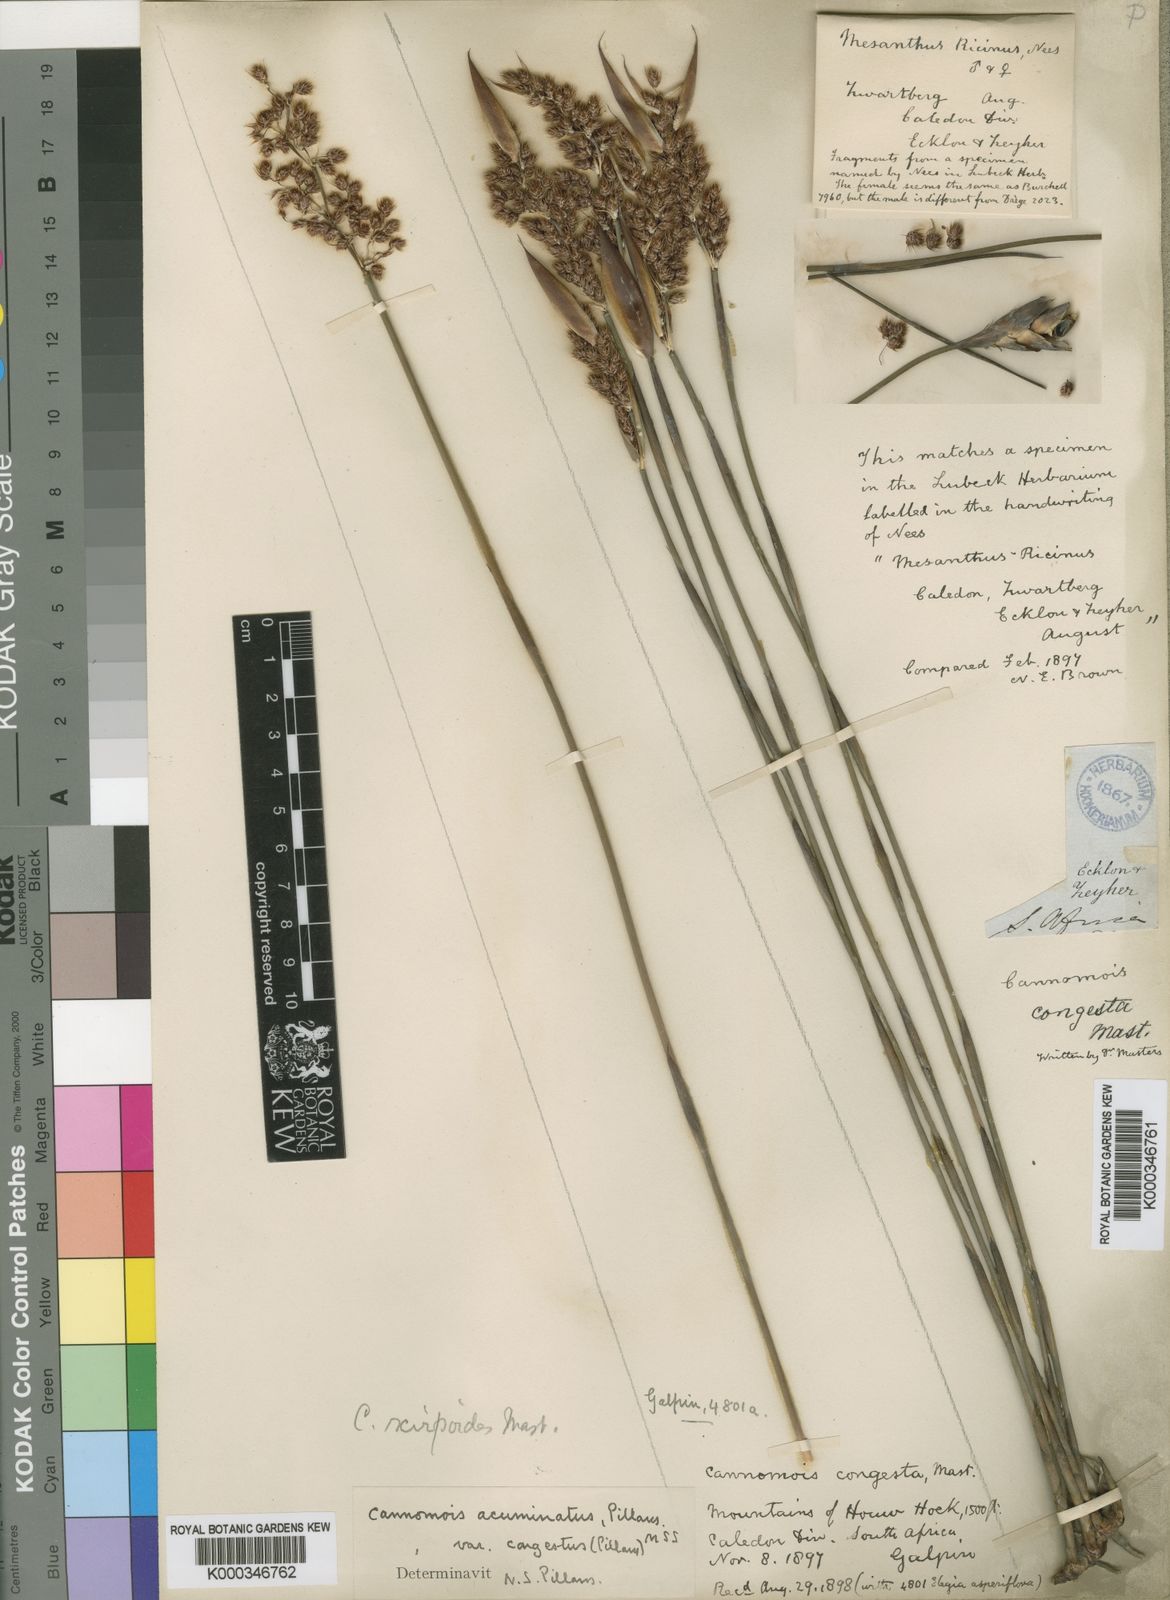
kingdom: Plantae
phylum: Tracheophyta
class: Liliopsida
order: Poales
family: Restionaceae
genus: Cannomois
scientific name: Cannomois congesta
